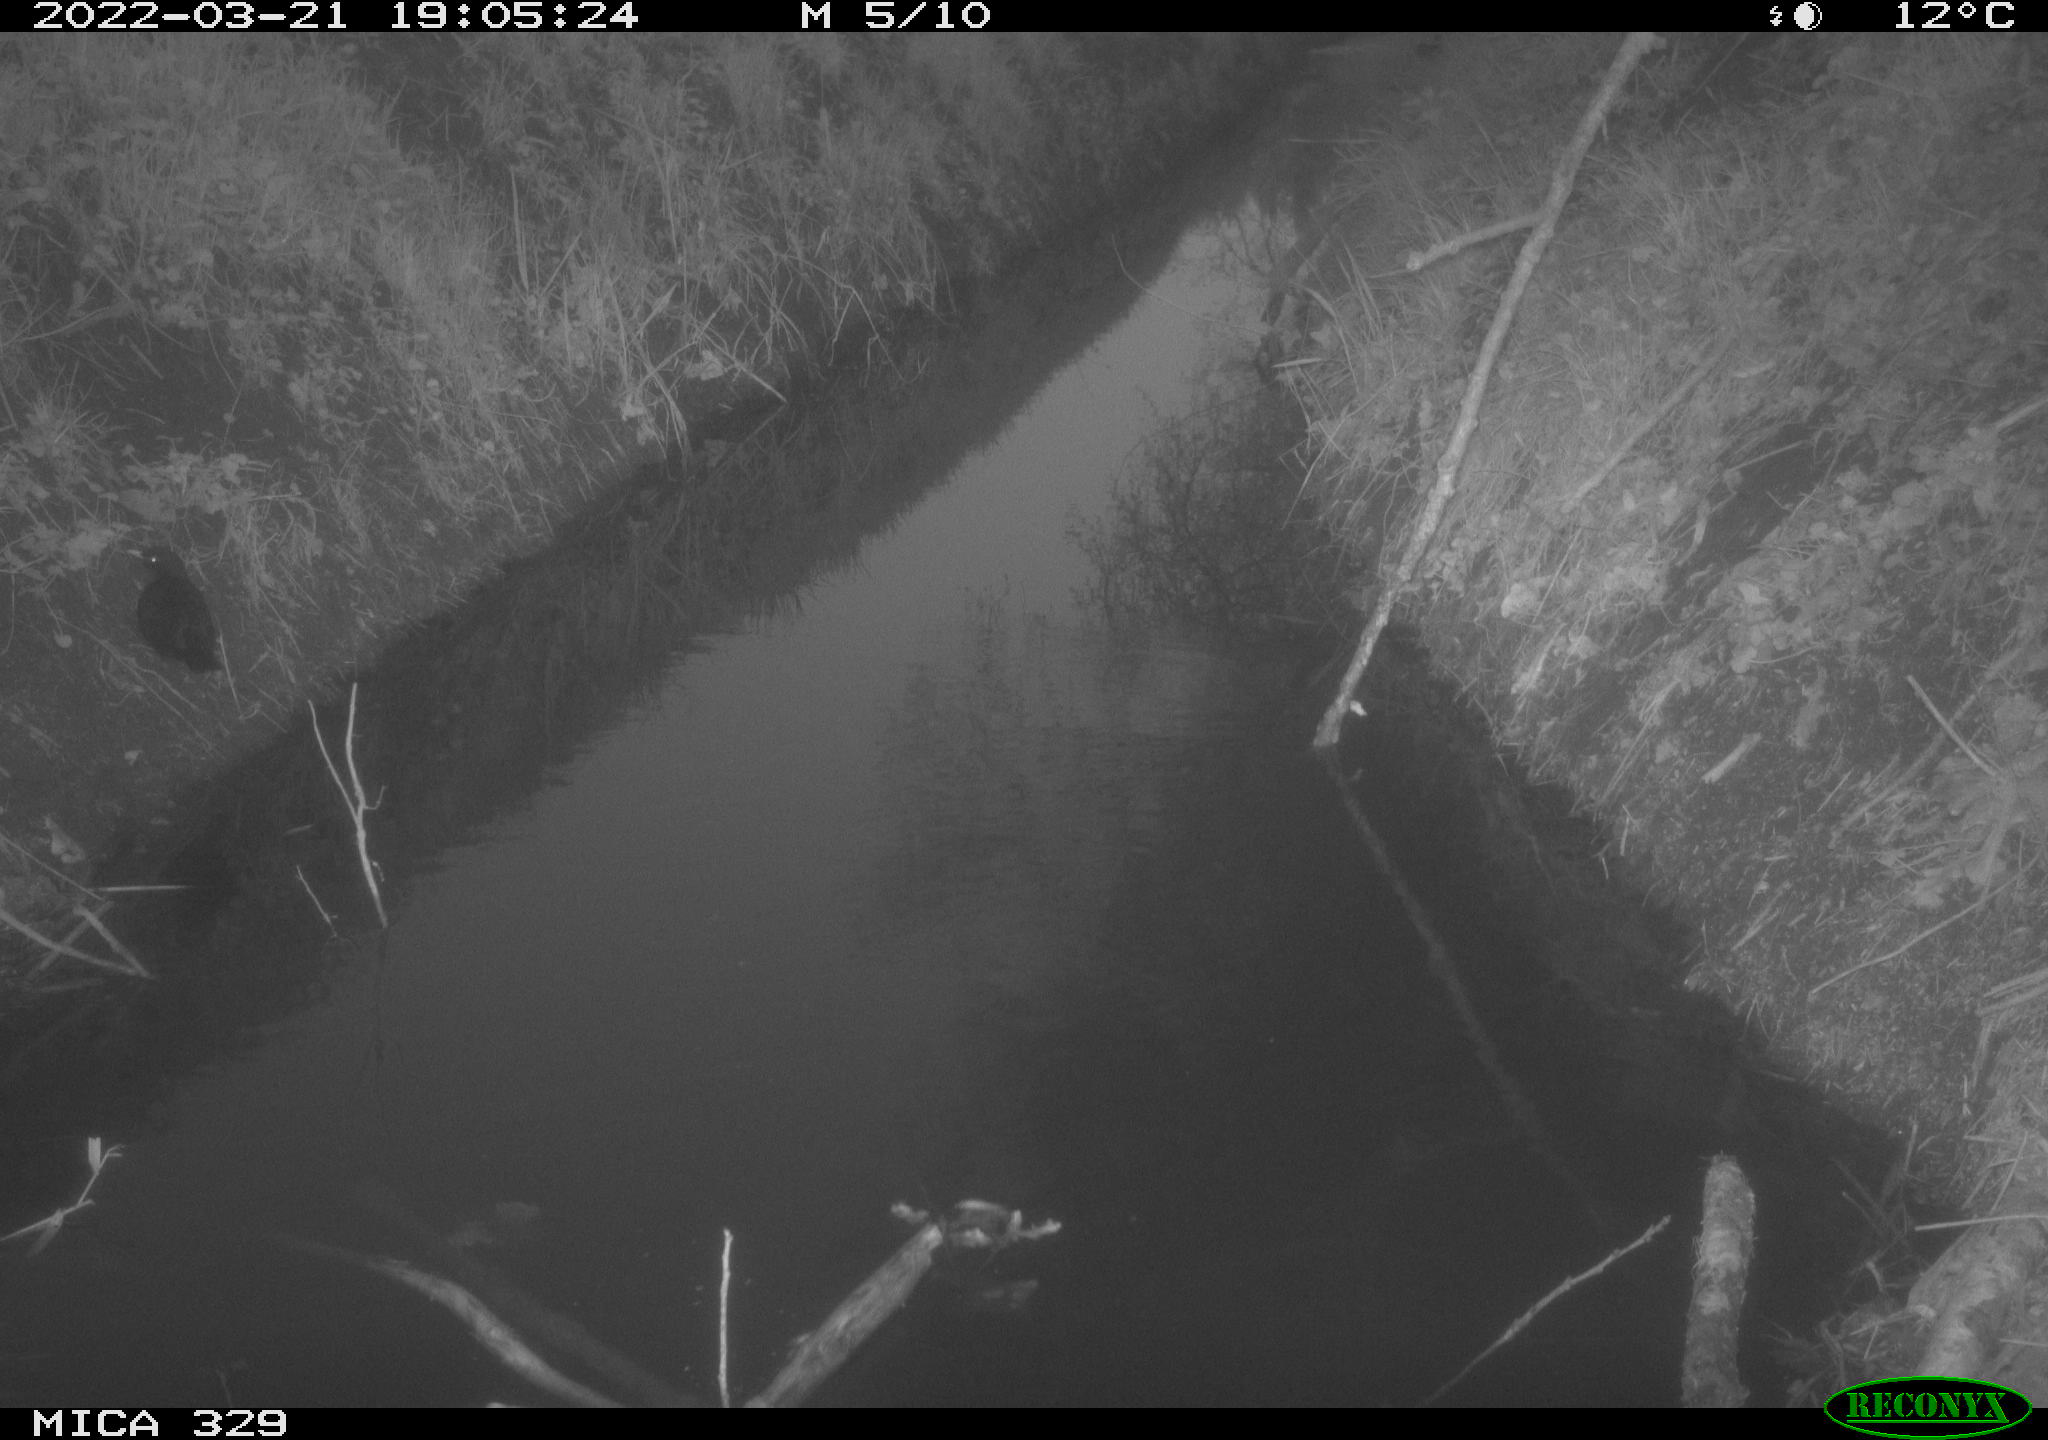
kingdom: Animalia
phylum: Chordata
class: Aves
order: Passeriformes
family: Turdidae
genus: Turdus
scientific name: Turdus merula
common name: Common blackbird
